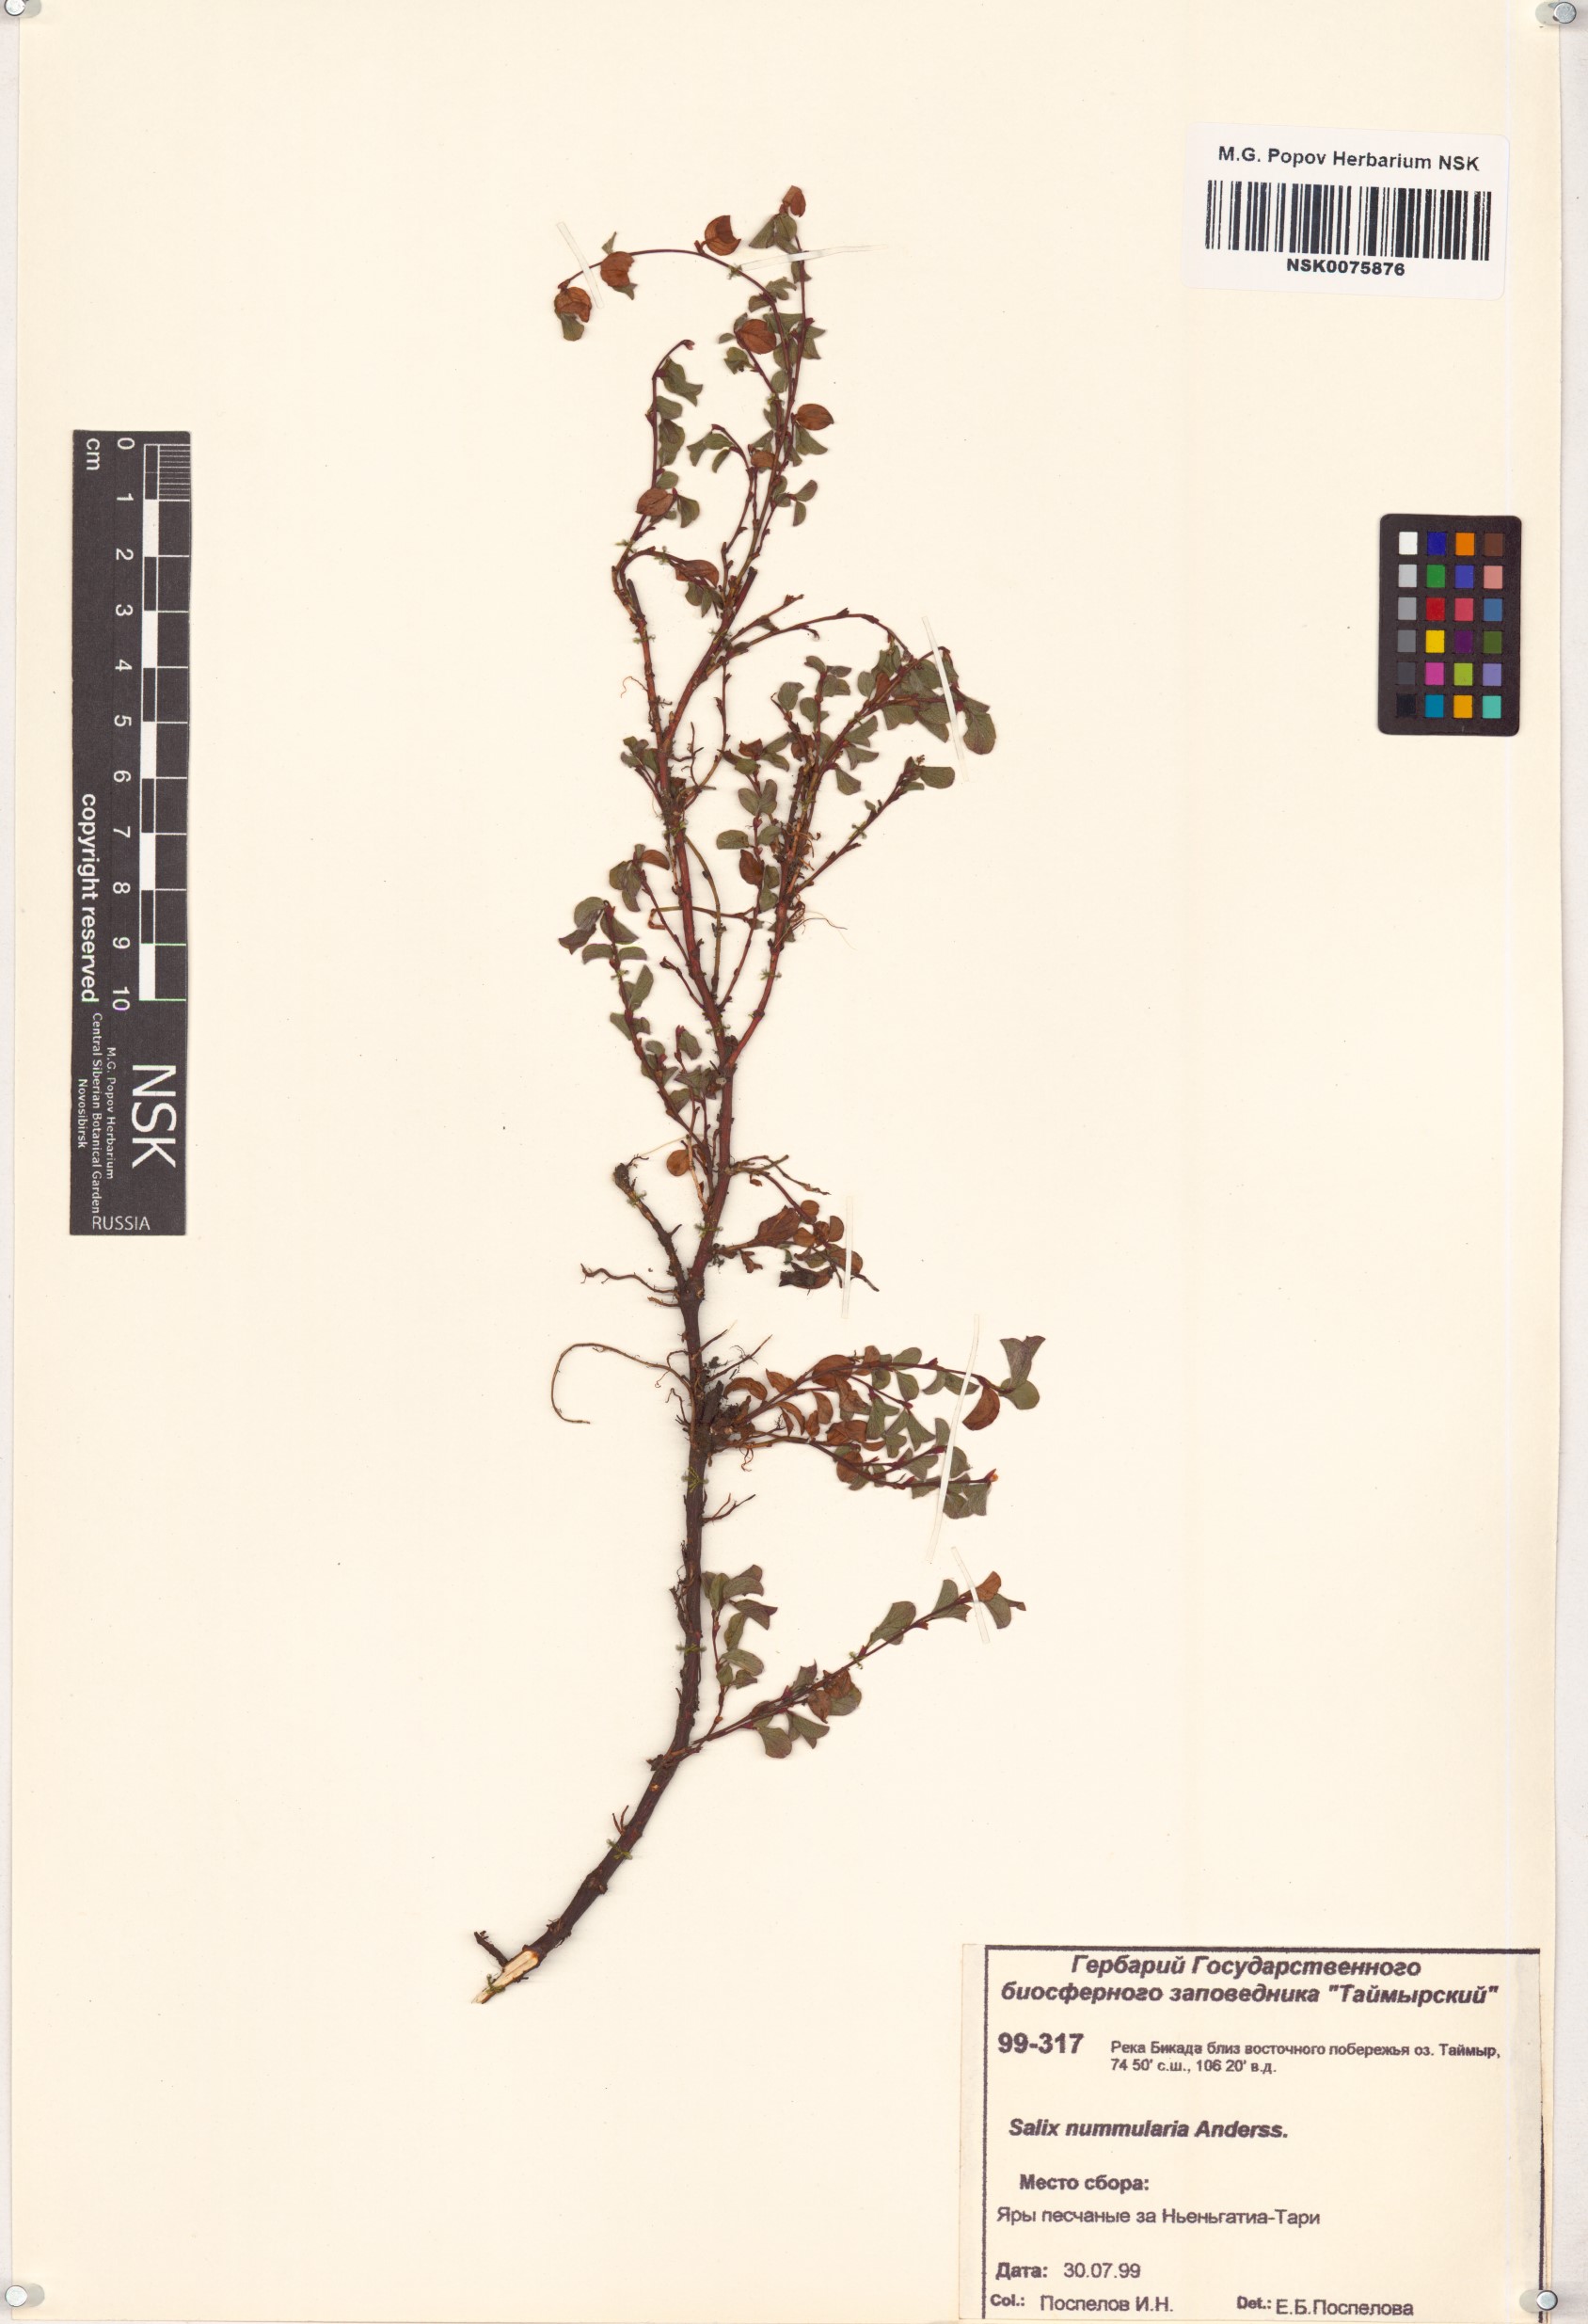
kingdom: Plantae
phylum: Tracheophyta
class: Magnoliopsida
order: Malpighiales
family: Salicaceae
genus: Salix
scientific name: Salix nummularia
